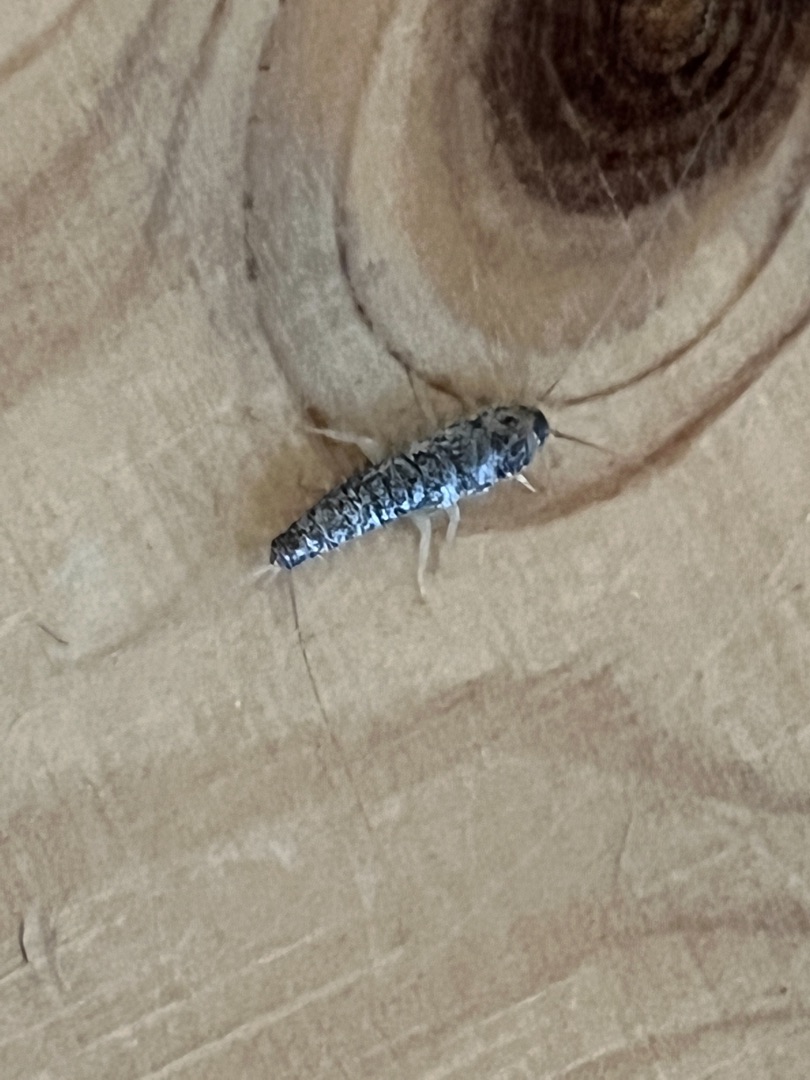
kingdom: Animalia
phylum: Arthropoda
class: Insecta
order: Zygentoma
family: Lepismatidae
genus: Ctenolepisma
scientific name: Ctenolepisma longicaudatum
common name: Skægget sølvkræ
